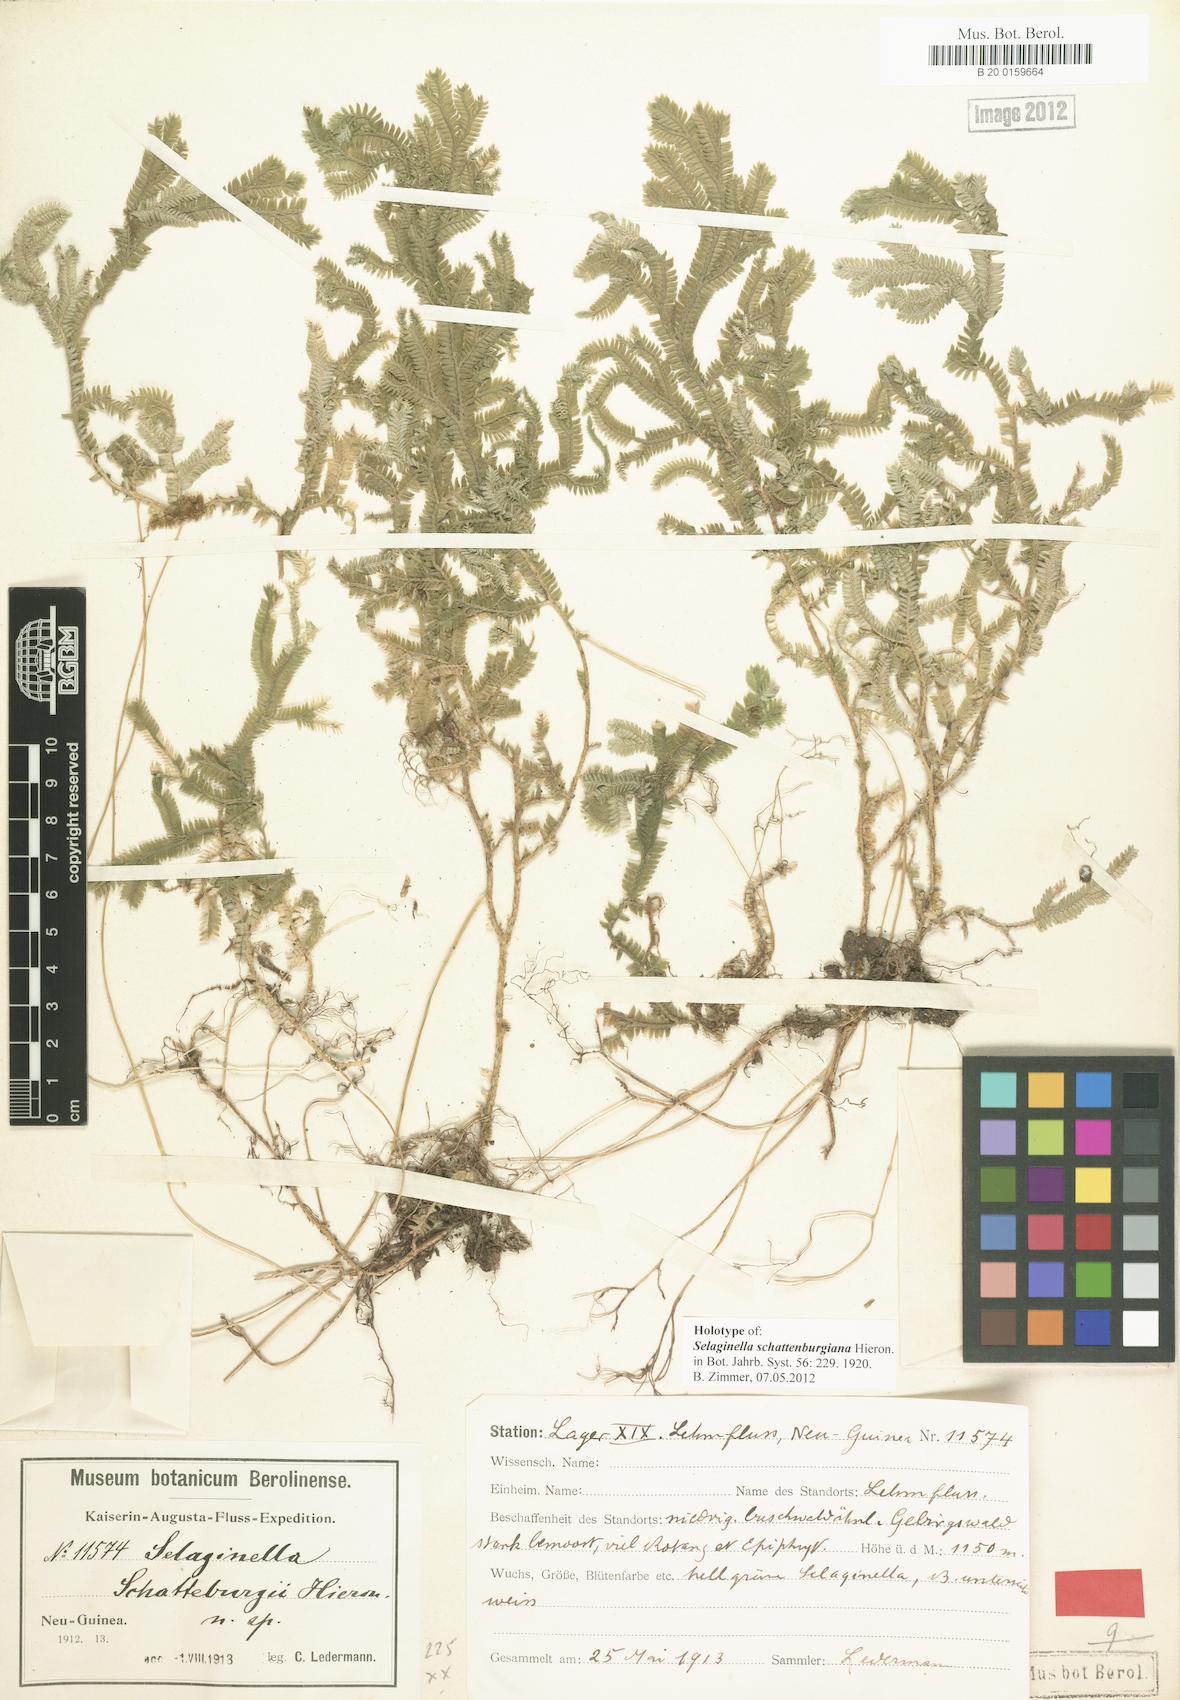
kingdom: Plantae
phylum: Tracheophyta
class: Lycopodiopsida
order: Selaginellales
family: Selaginellaceae
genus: Selaginella
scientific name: Selaginella schatteburgiana
